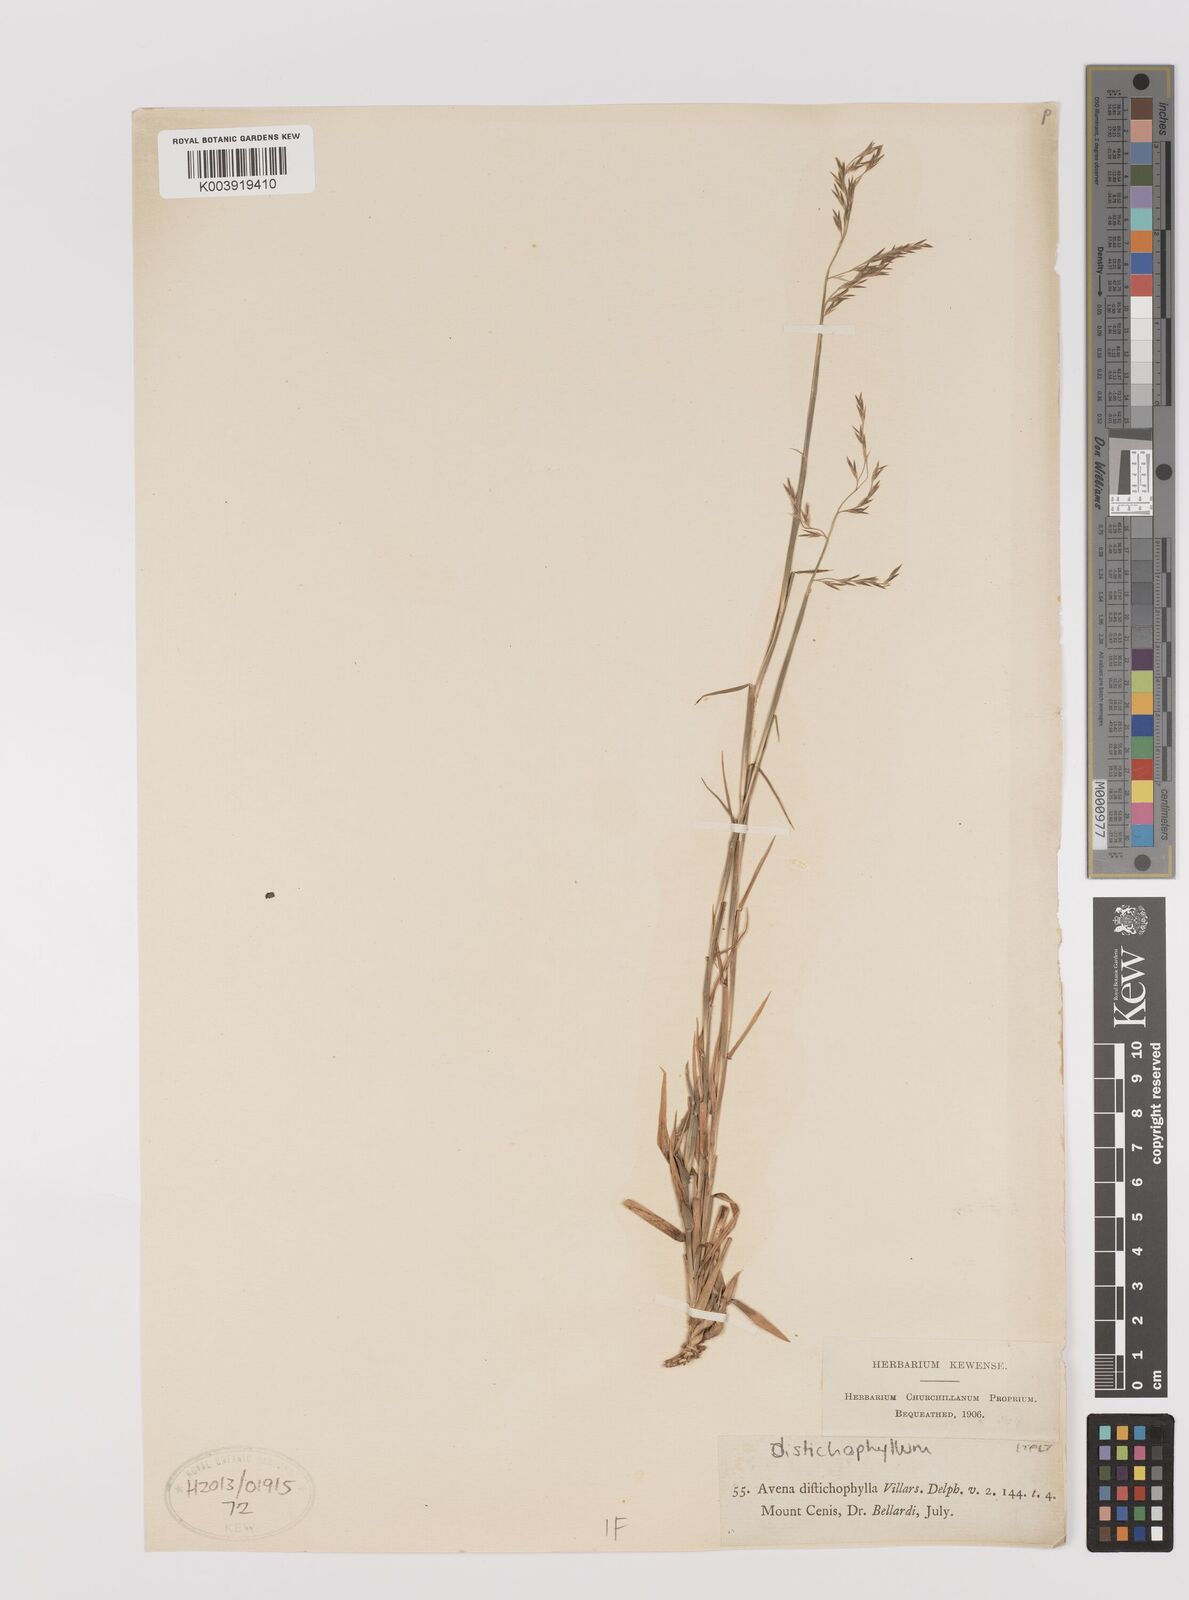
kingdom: Plantae
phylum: Tracheophyta
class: Liliopsida
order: Poales
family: Poaceae
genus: Acrospelion
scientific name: Acrospelion distichophyllum
